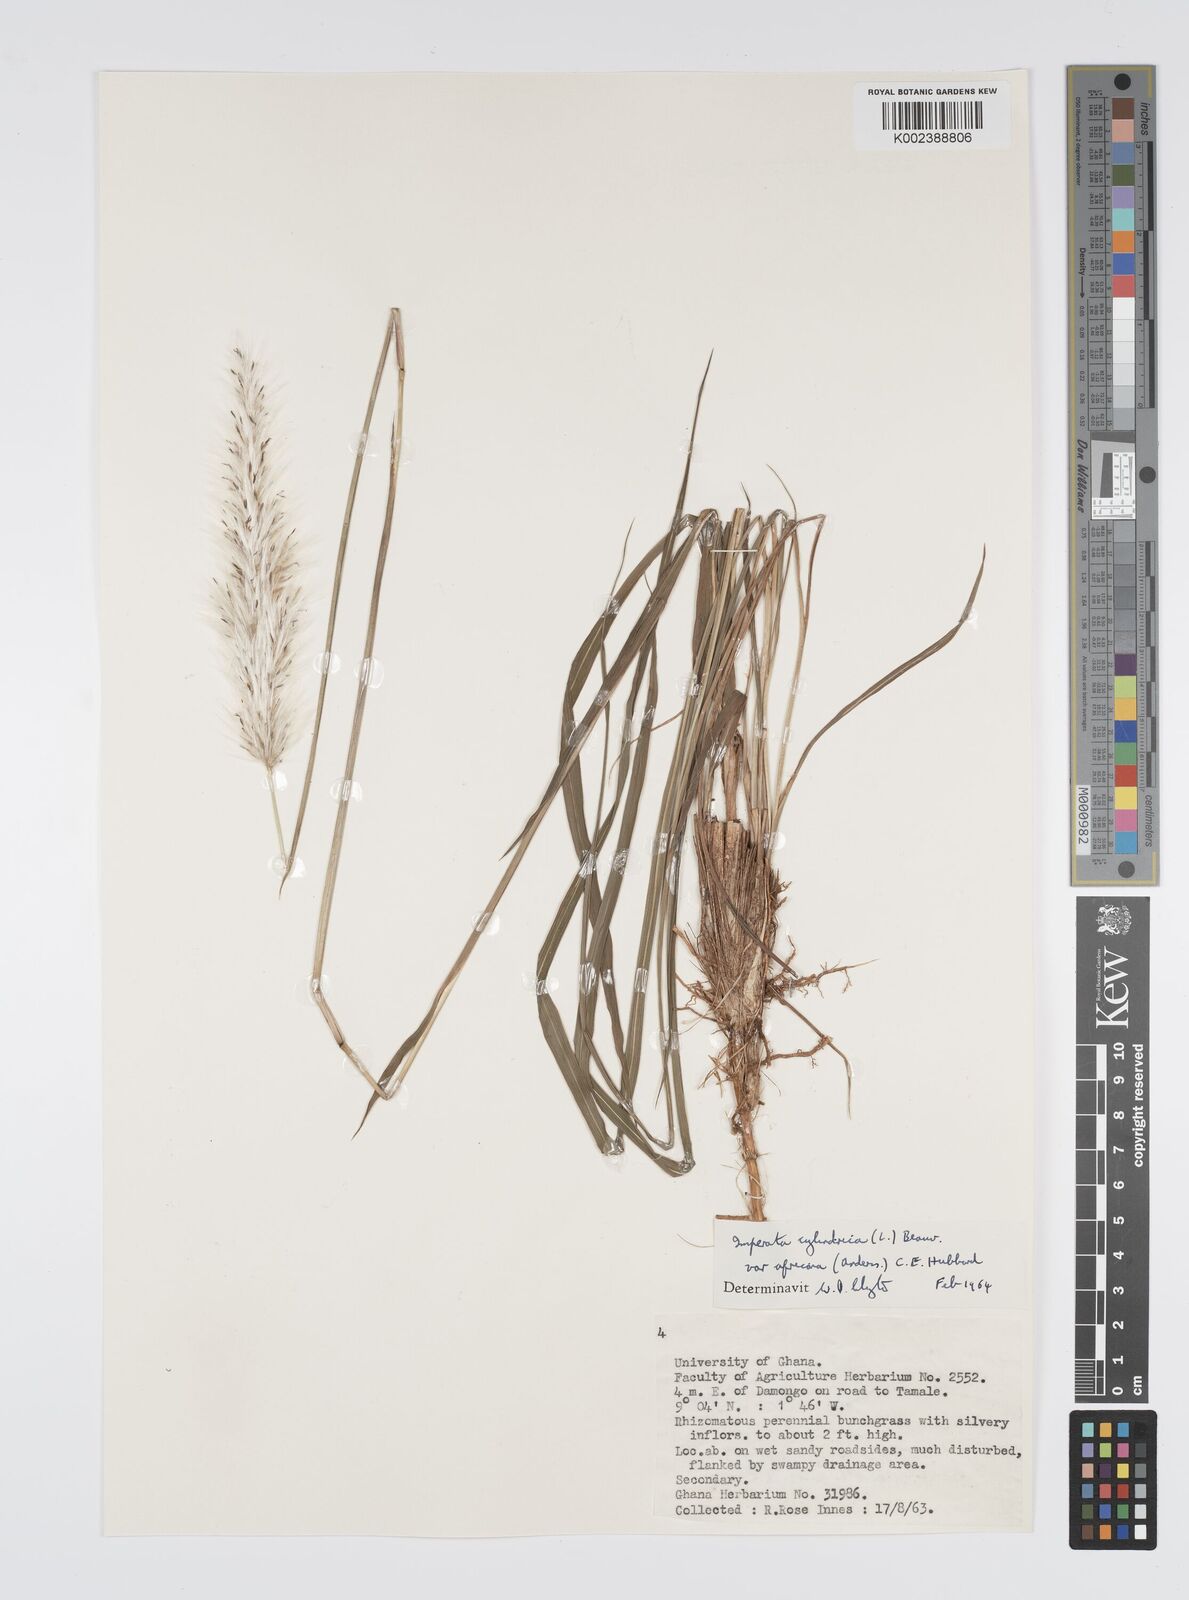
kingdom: Plantae
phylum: Tracheophyta
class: Liliopsida
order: Poales
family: Poaceae
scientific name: Poaceae
